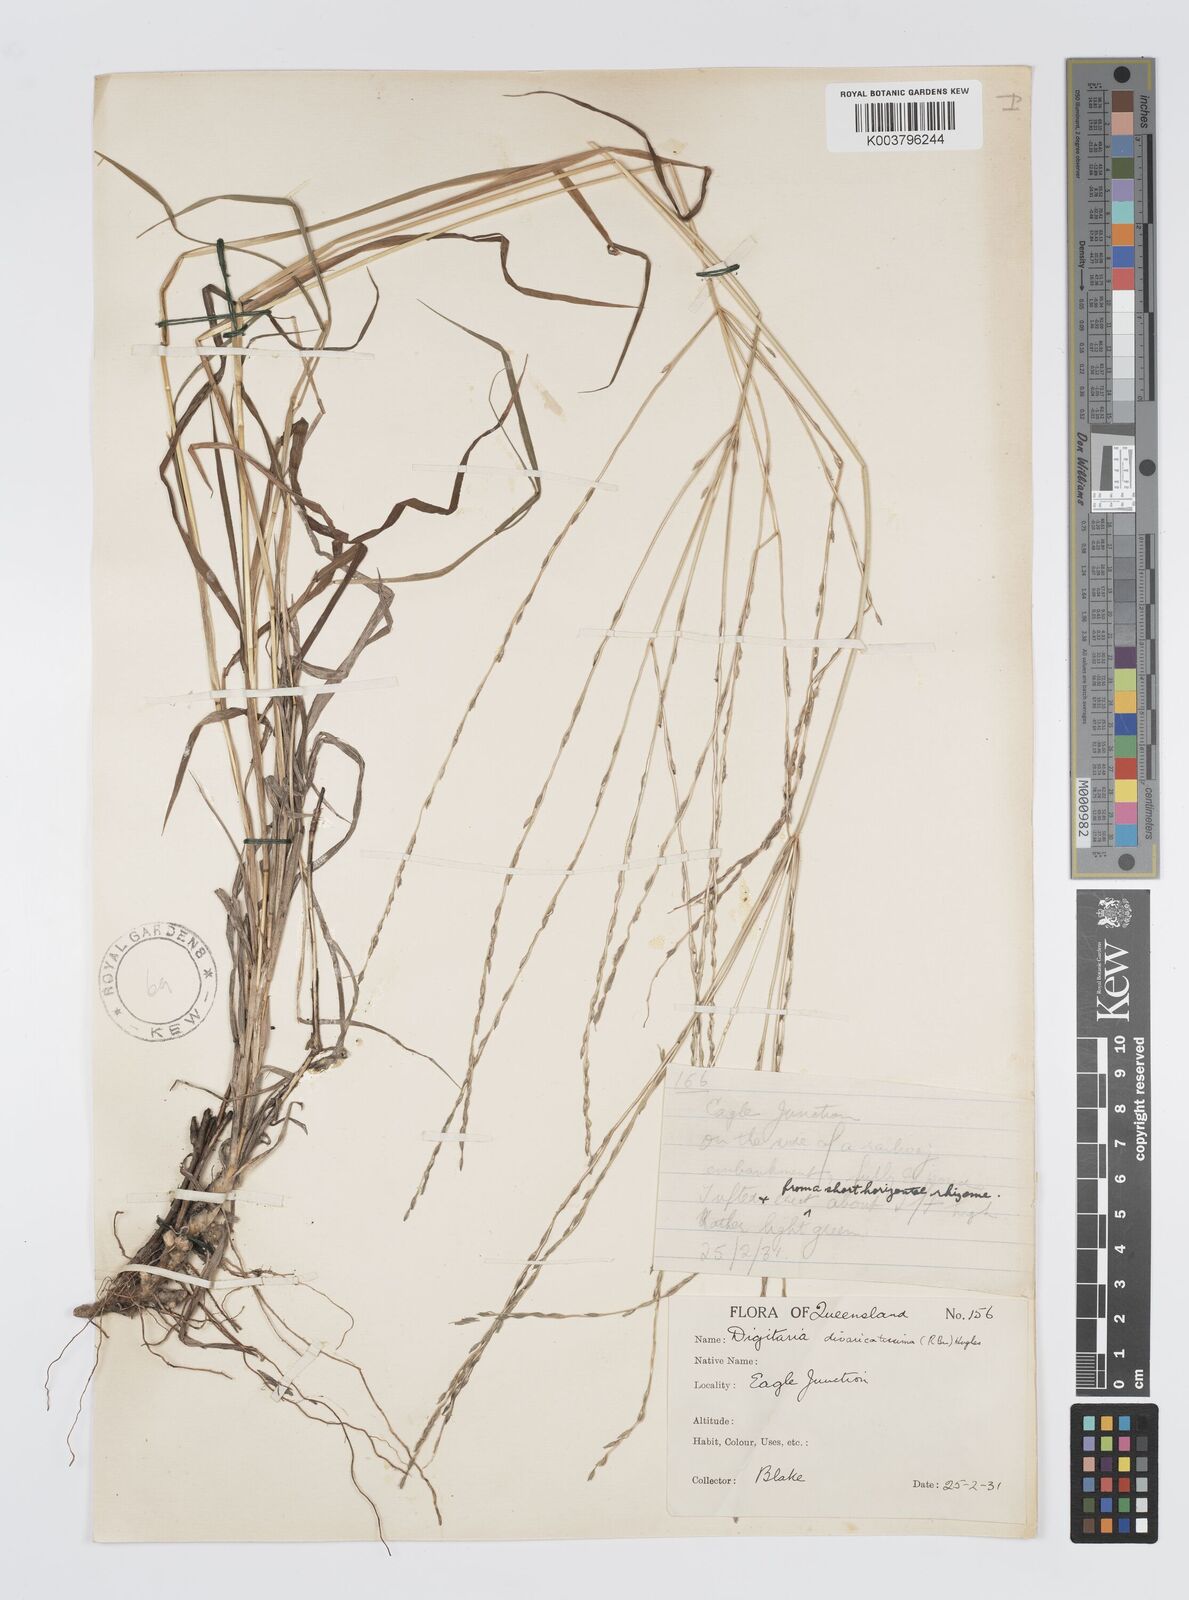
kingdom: Plantae
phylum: Tracheophyta
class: Liliopsida
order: Poales
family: Poaceae
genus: Digitaria
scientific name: Digitaria divaricatissima
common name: Crabgrass
